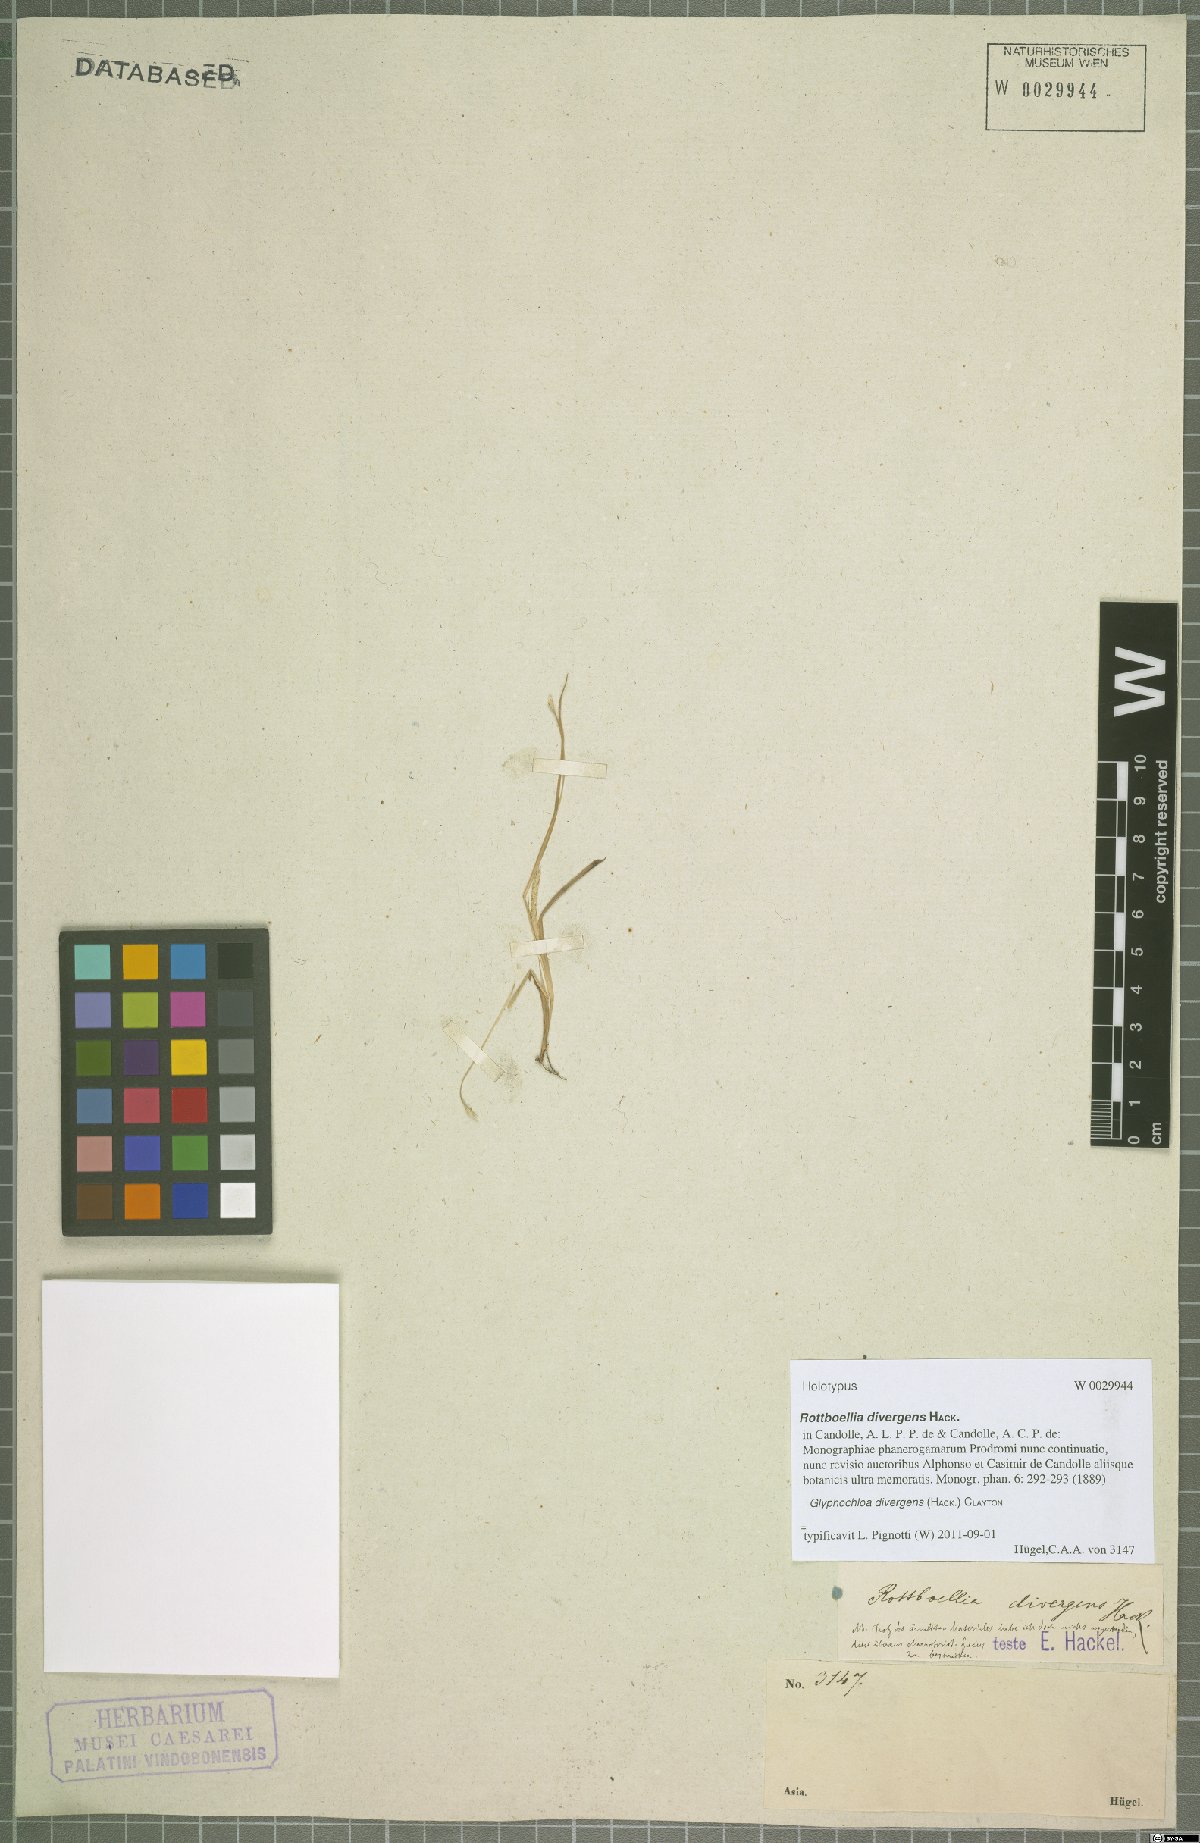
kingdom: Plantae
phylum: Tracheophyta
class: Liliopsida
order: Poales
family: Poaceae
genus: Glyphochloa
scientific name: Glyphochloa divergens
